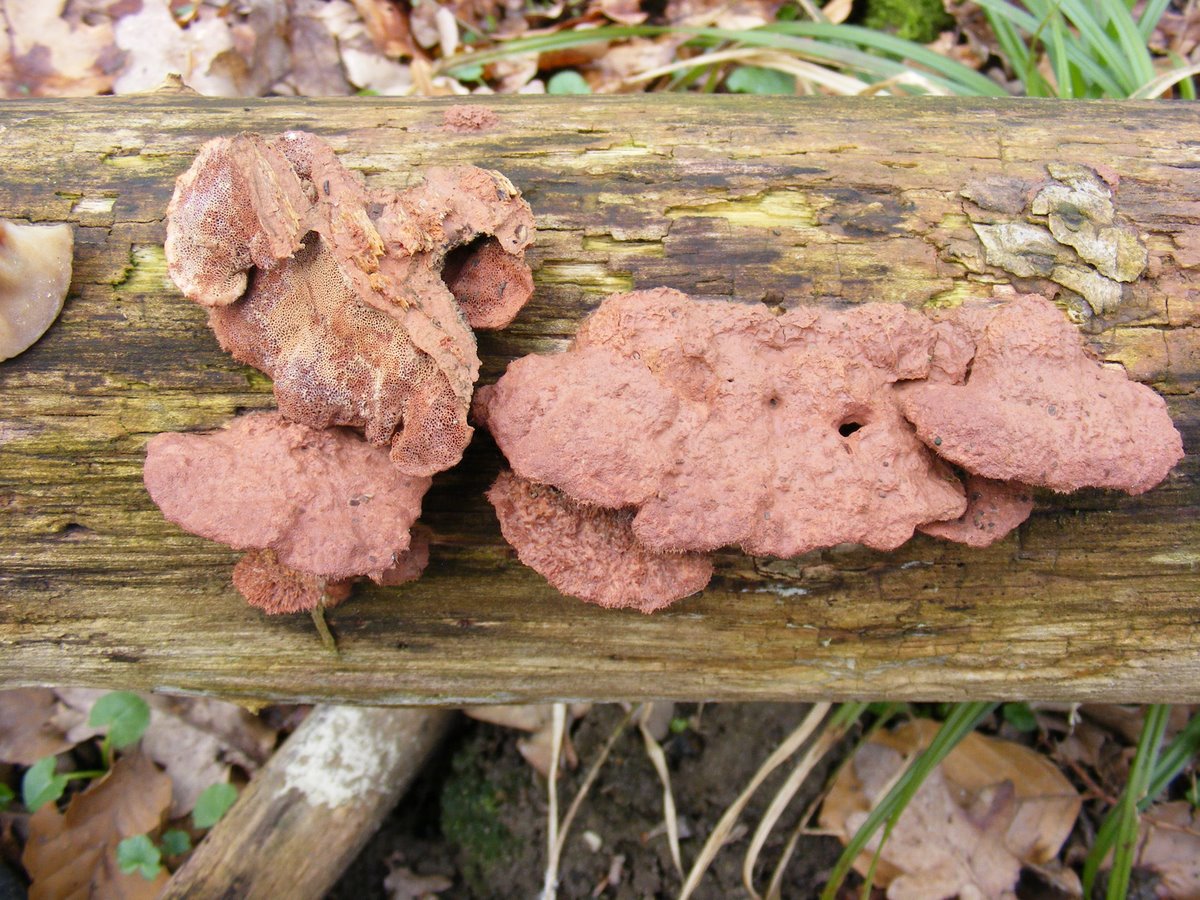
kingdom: Fungi
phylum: Basidiomycota
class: Agaricomycetes
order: Polyporales
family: Phanerochaetaceae
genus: Hapalopilus
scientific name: Hapalopilus rutilans
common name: rødlig okkerporesvamp
